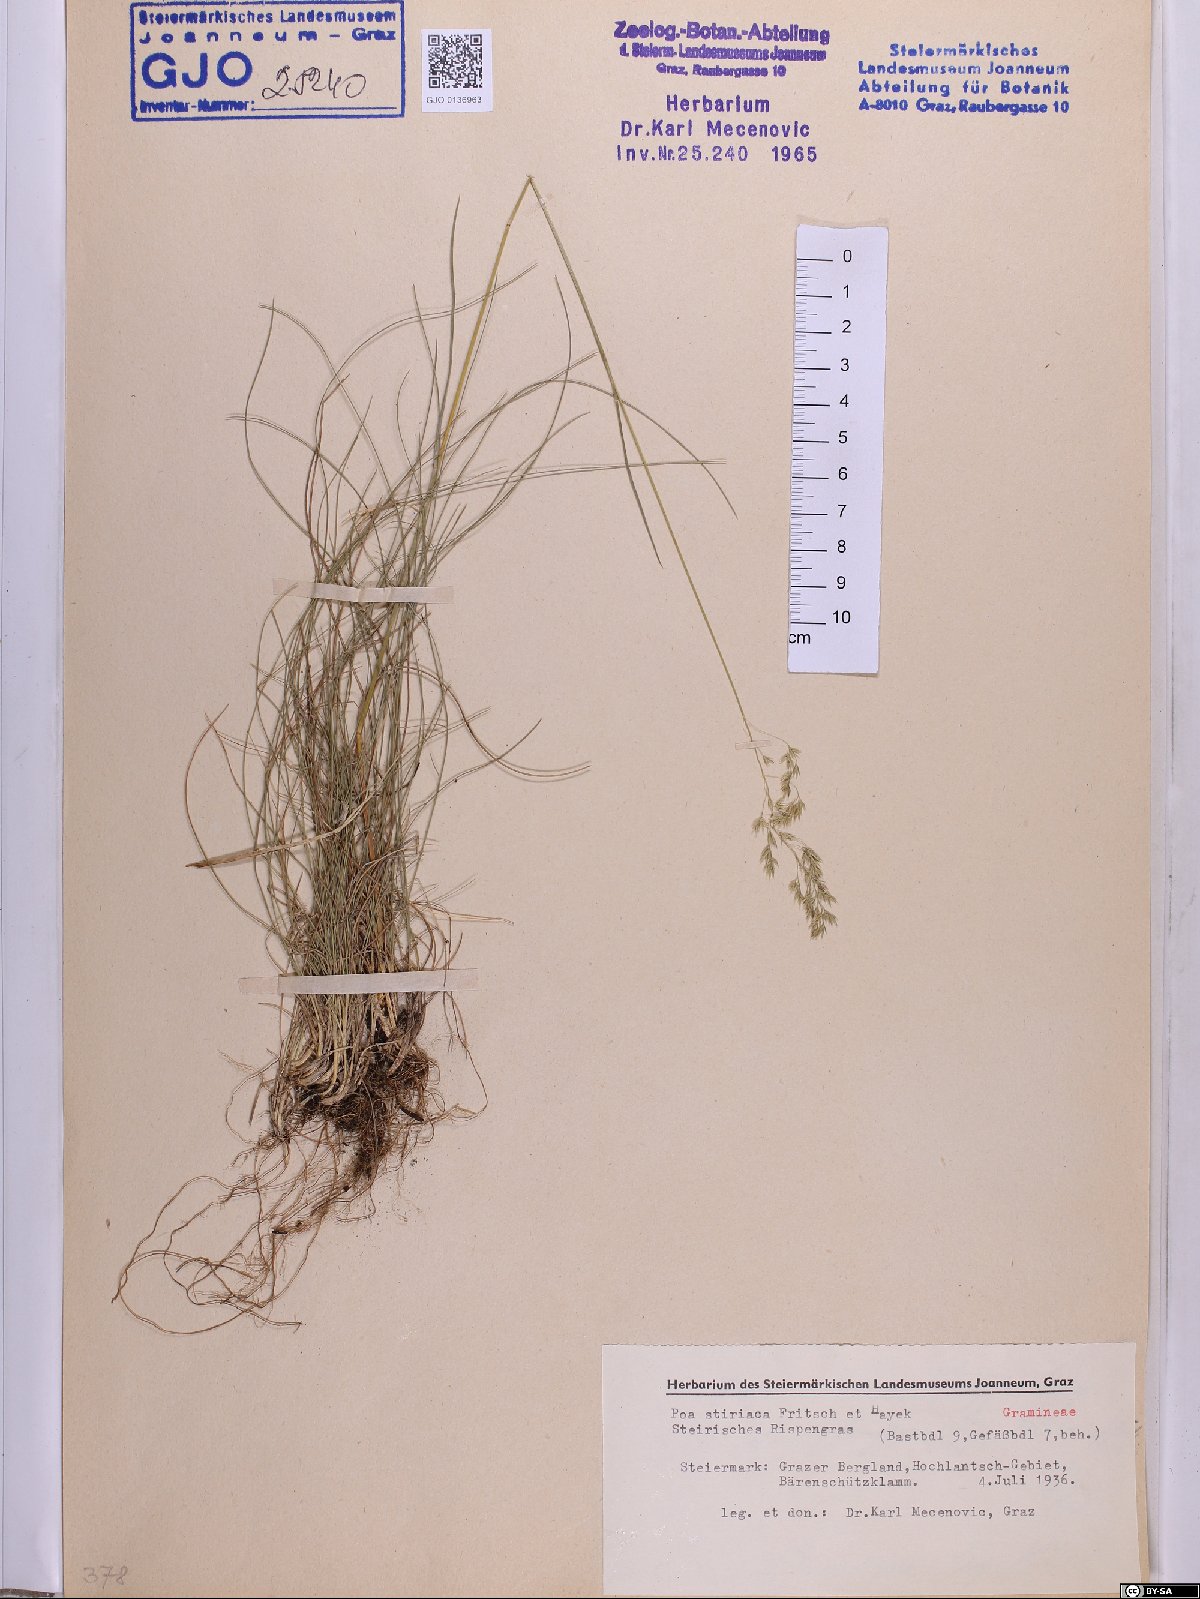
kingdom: Plantae
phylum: Tracheophyta
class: Liliopsida
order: Poales
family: Poaceae
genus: Poa
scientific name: Poa stiriaca
